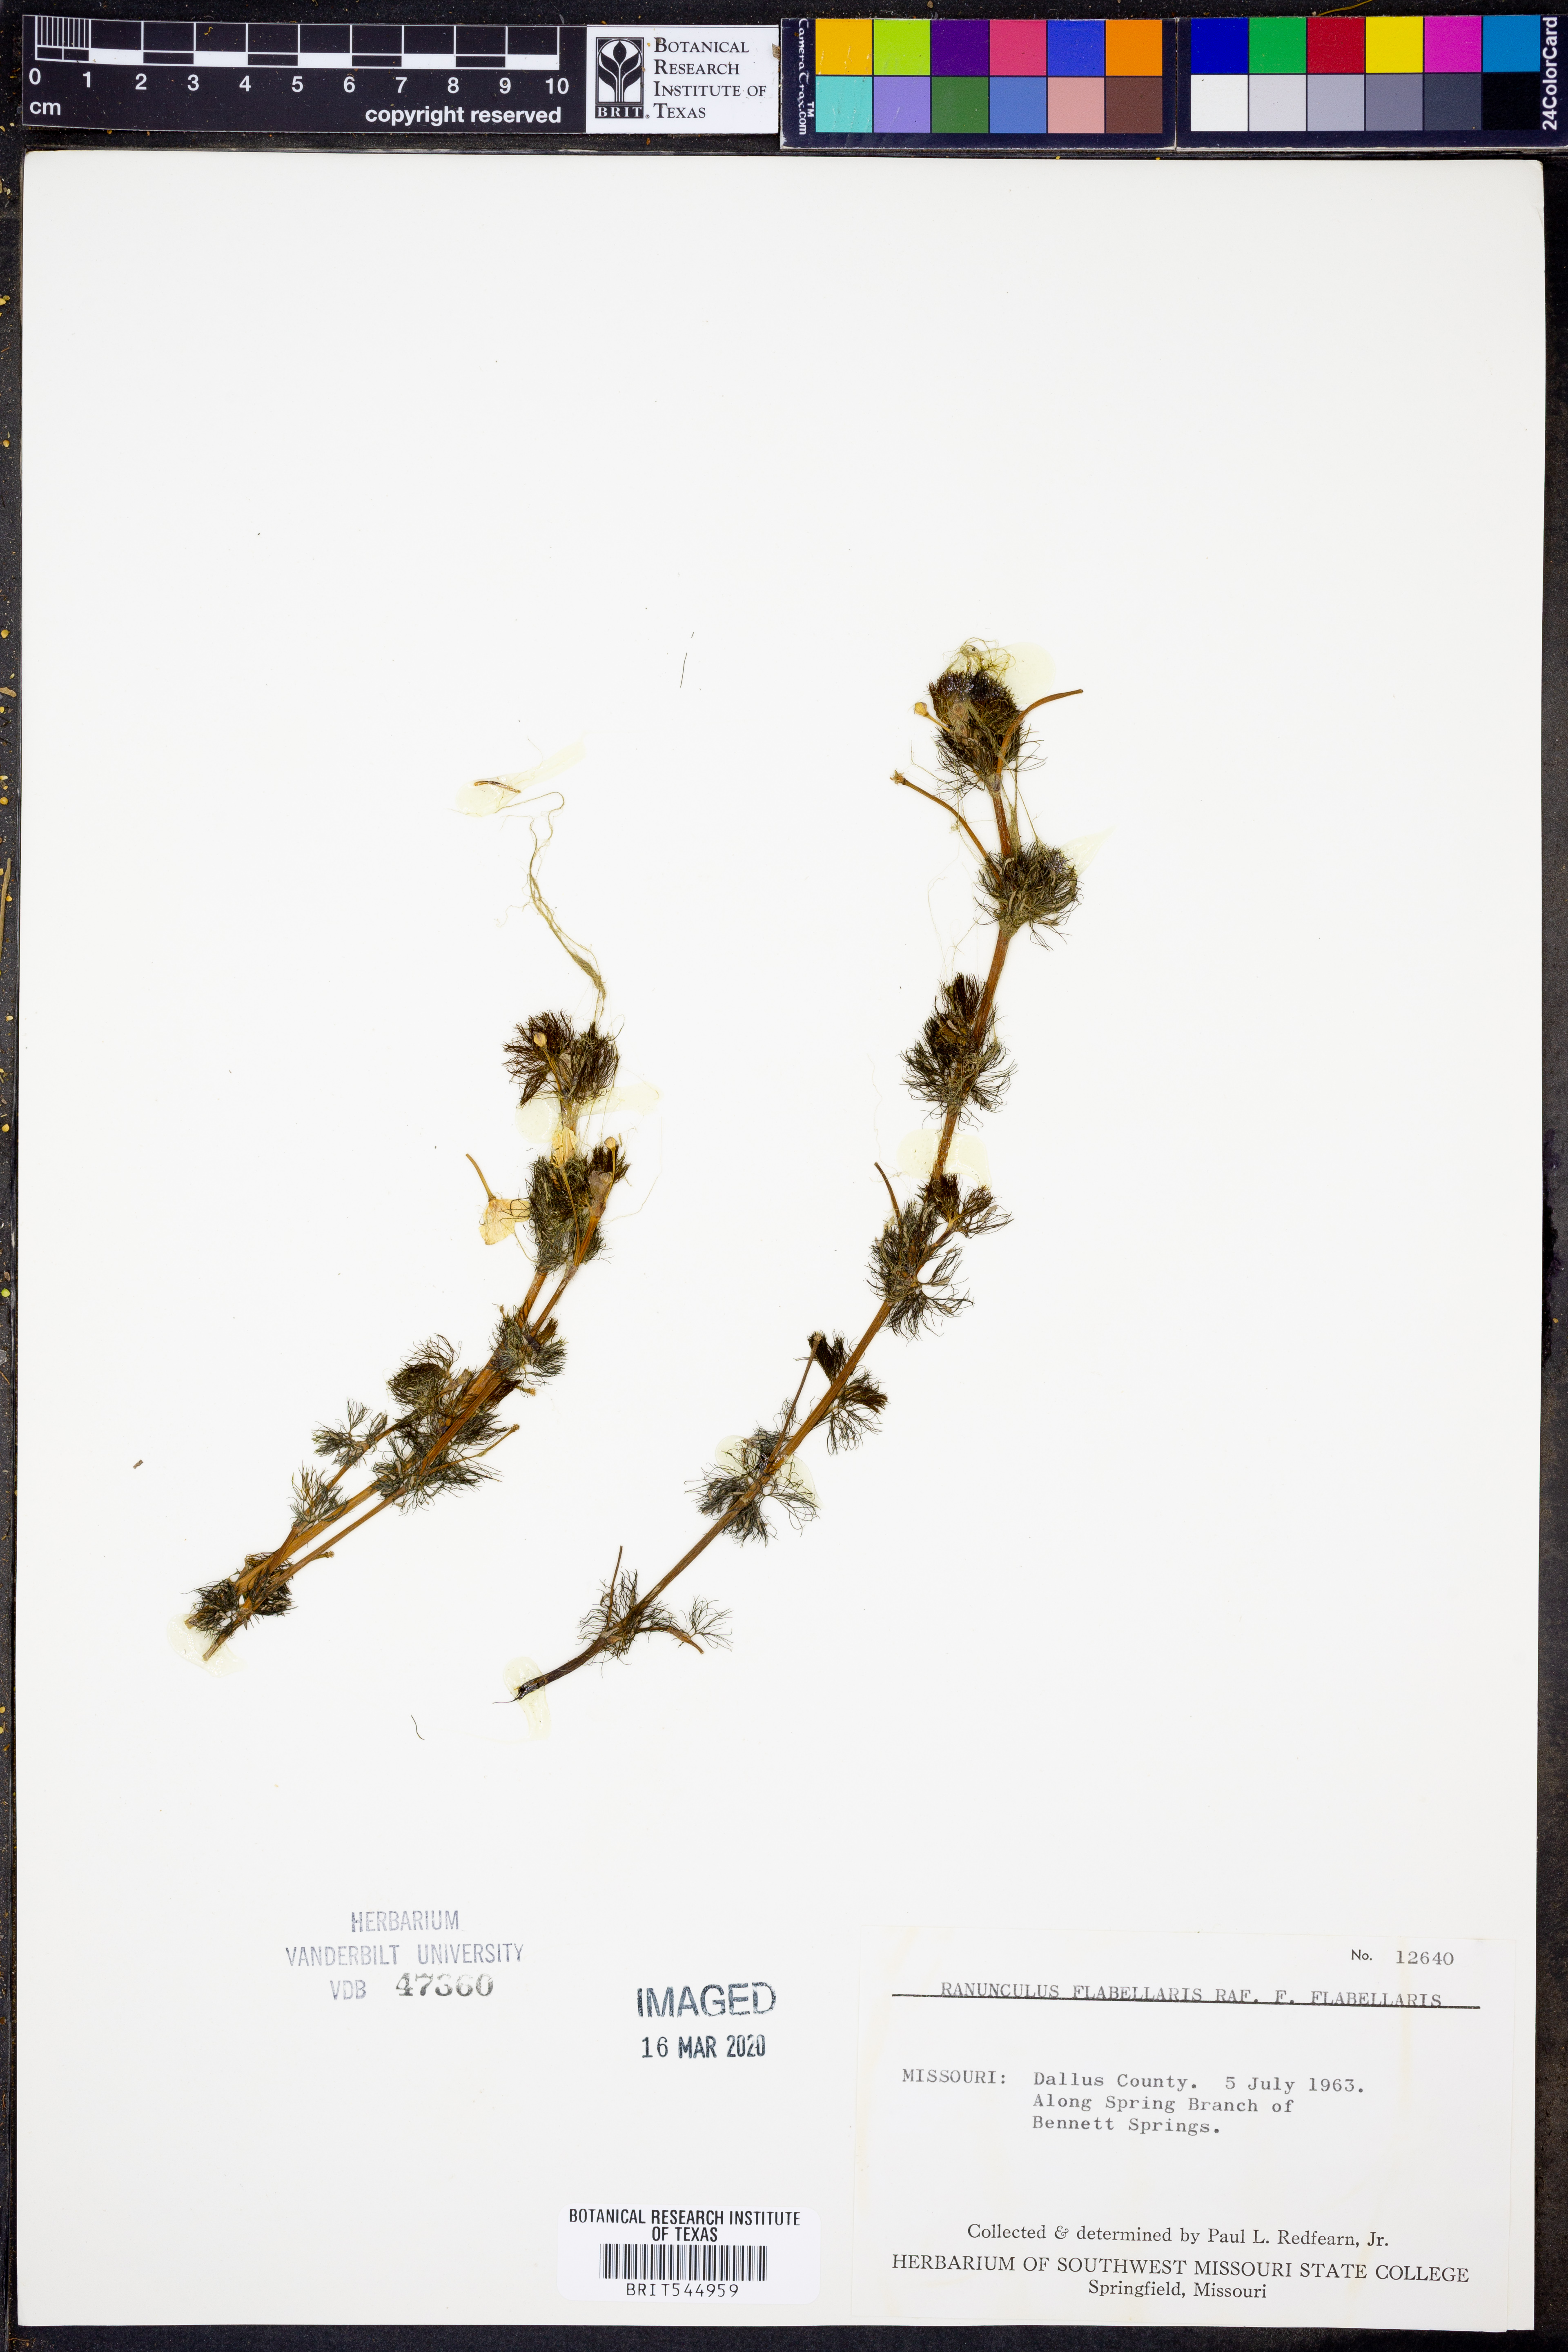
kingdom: Plantae
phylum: Tracheophyta
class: Magnoliopsida
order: Ranunculales
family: Ranunculaceae
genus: Ranunculus
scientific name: Ranunculus flabellaris
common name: Yellow water-crowfoot
